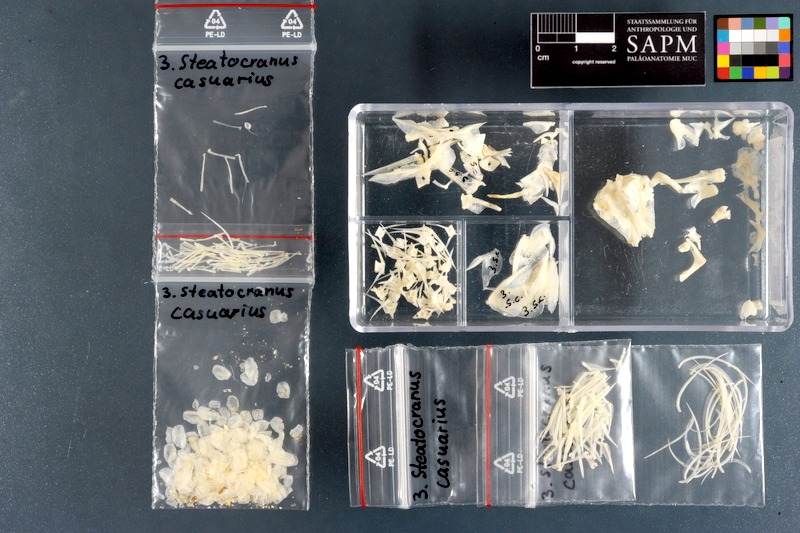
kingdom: Animalia
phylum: Chordata
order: Perciformes
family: Cichlidae
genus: Steatocranus
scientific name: Steatocranus casuarius
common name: Lionhead cichlid
